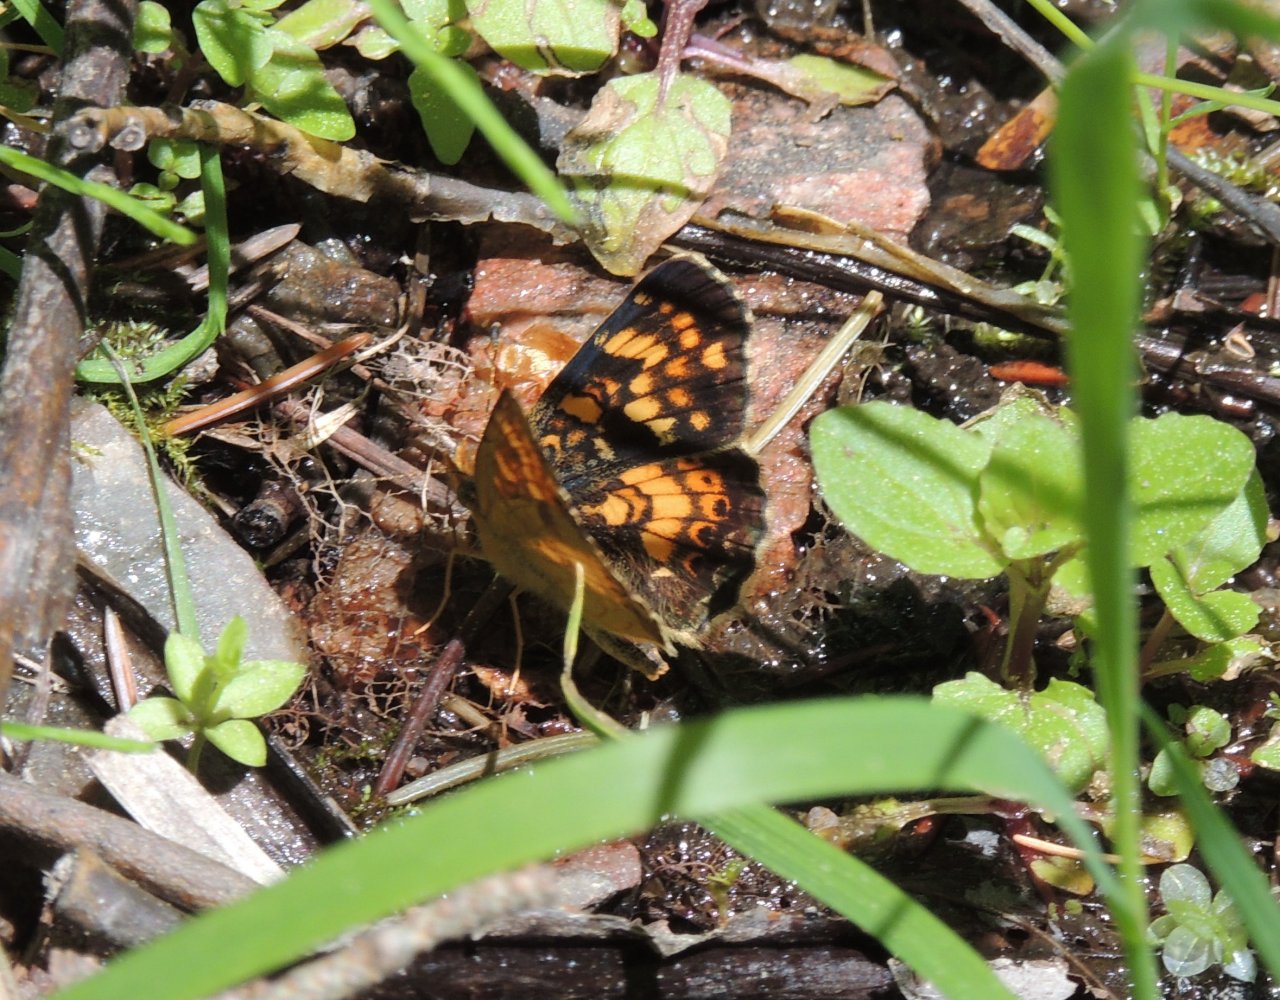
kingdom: Animalia
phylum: Arthropoda
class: Insecta
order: Lepidoptera
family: Nymphalidae
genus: Phyciodes
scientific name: Phyciodes tharos
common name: Field Crescent
